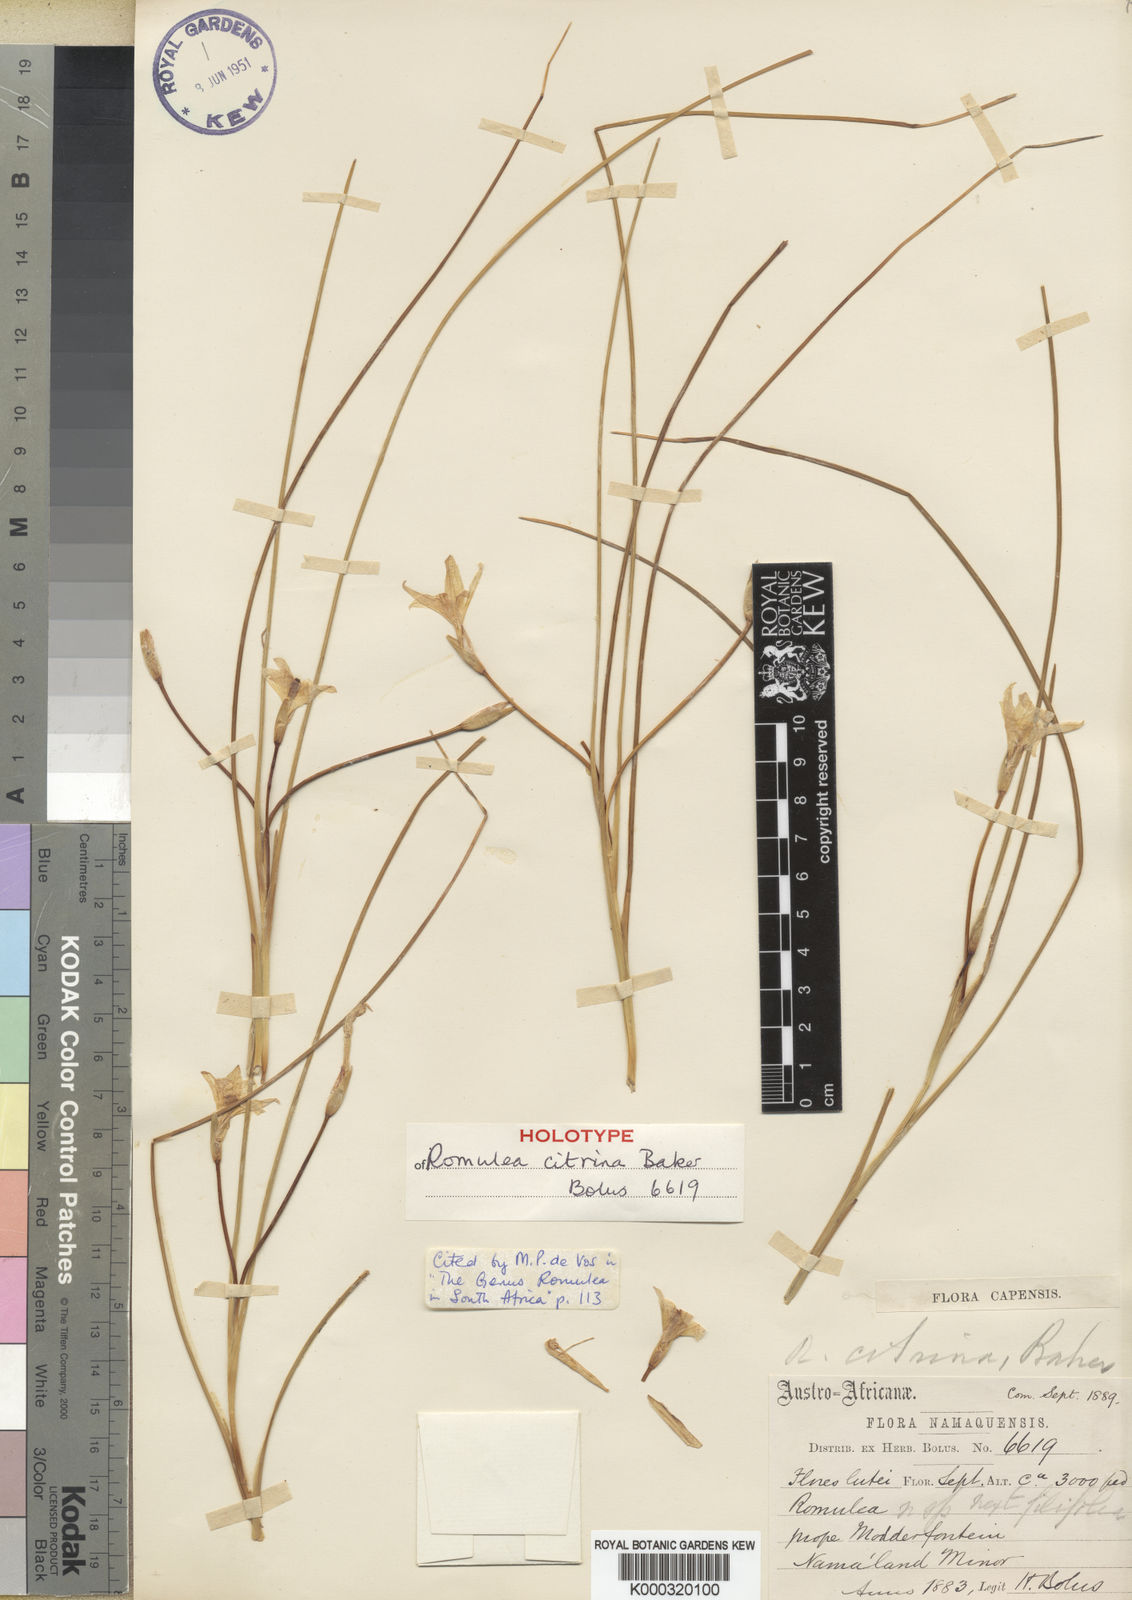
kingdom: Plantae
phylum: Tracheophyta
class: Liliopsida
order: Asparagales
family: Iridaceae
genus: Romulea
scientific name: Romulea citrina
